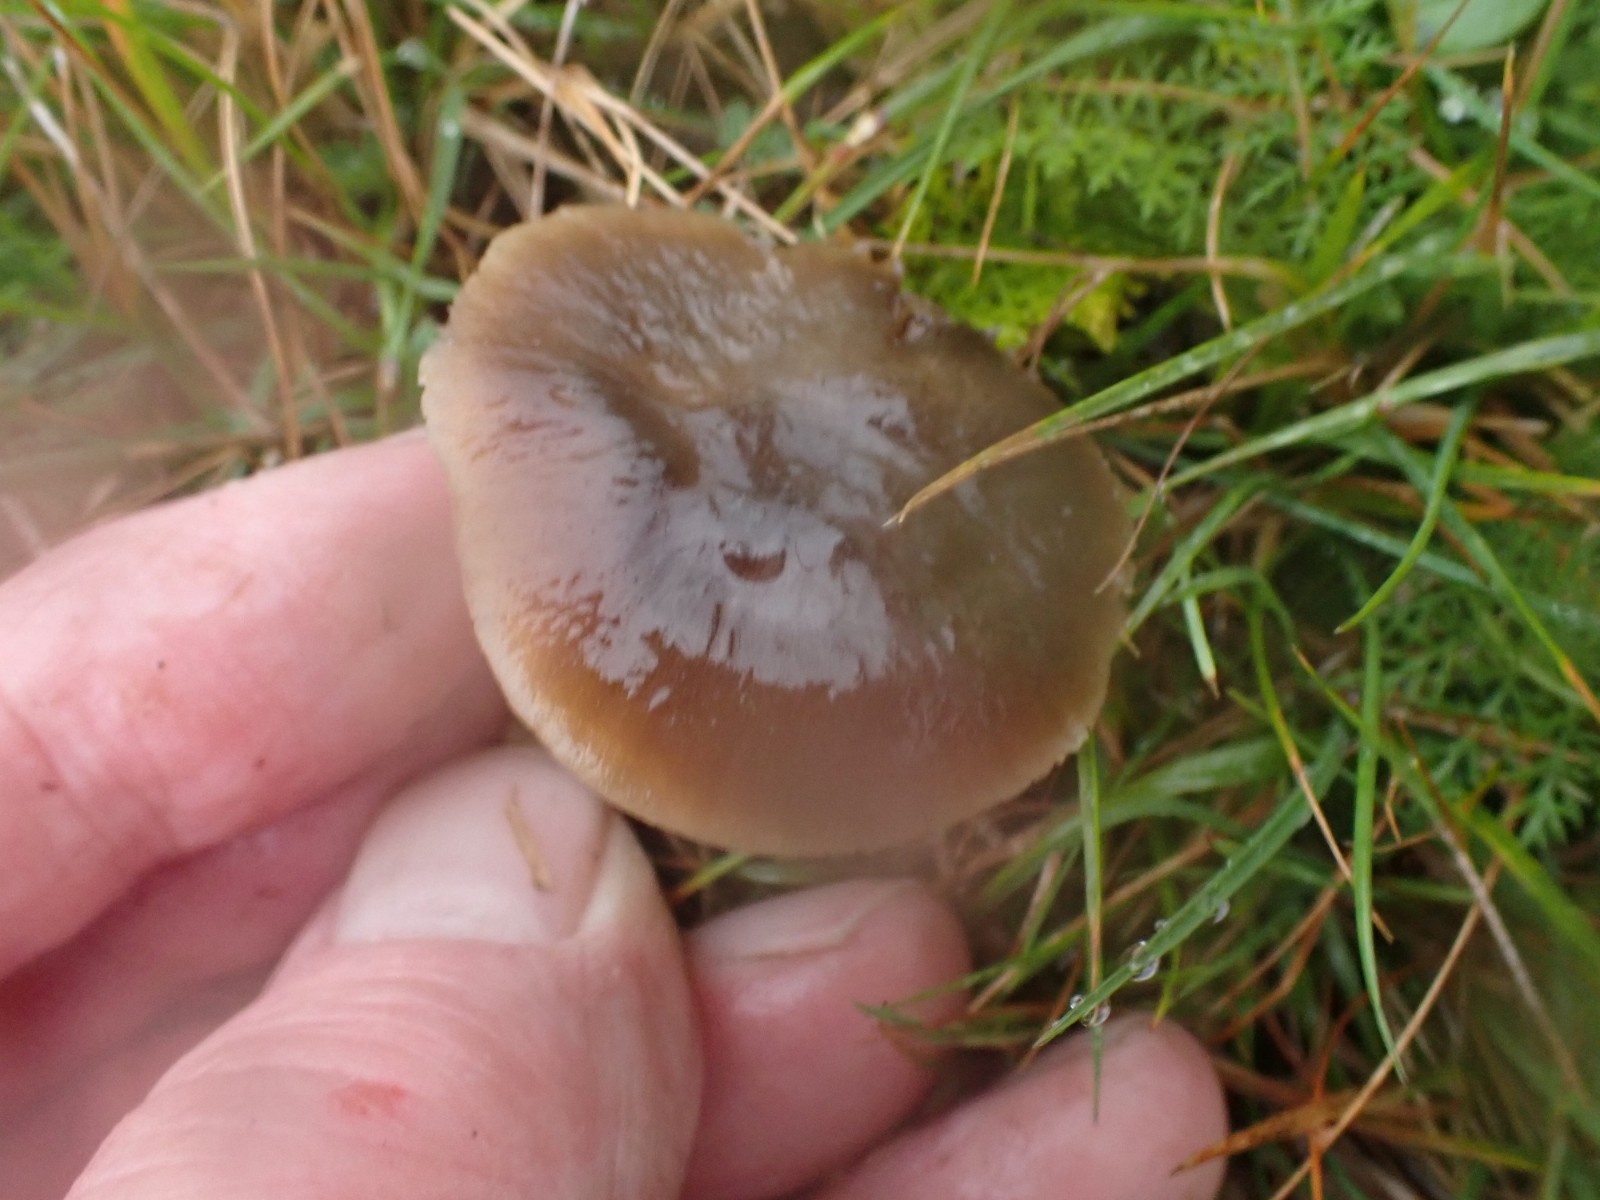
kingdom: Fungi
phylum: Basidiomycota
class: Agaricomycetes
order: Agaricales
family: Hygrophoraceae
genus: Neohygrocybe
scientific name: Neohygrocybe nitrata
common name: stinkende vokshat
